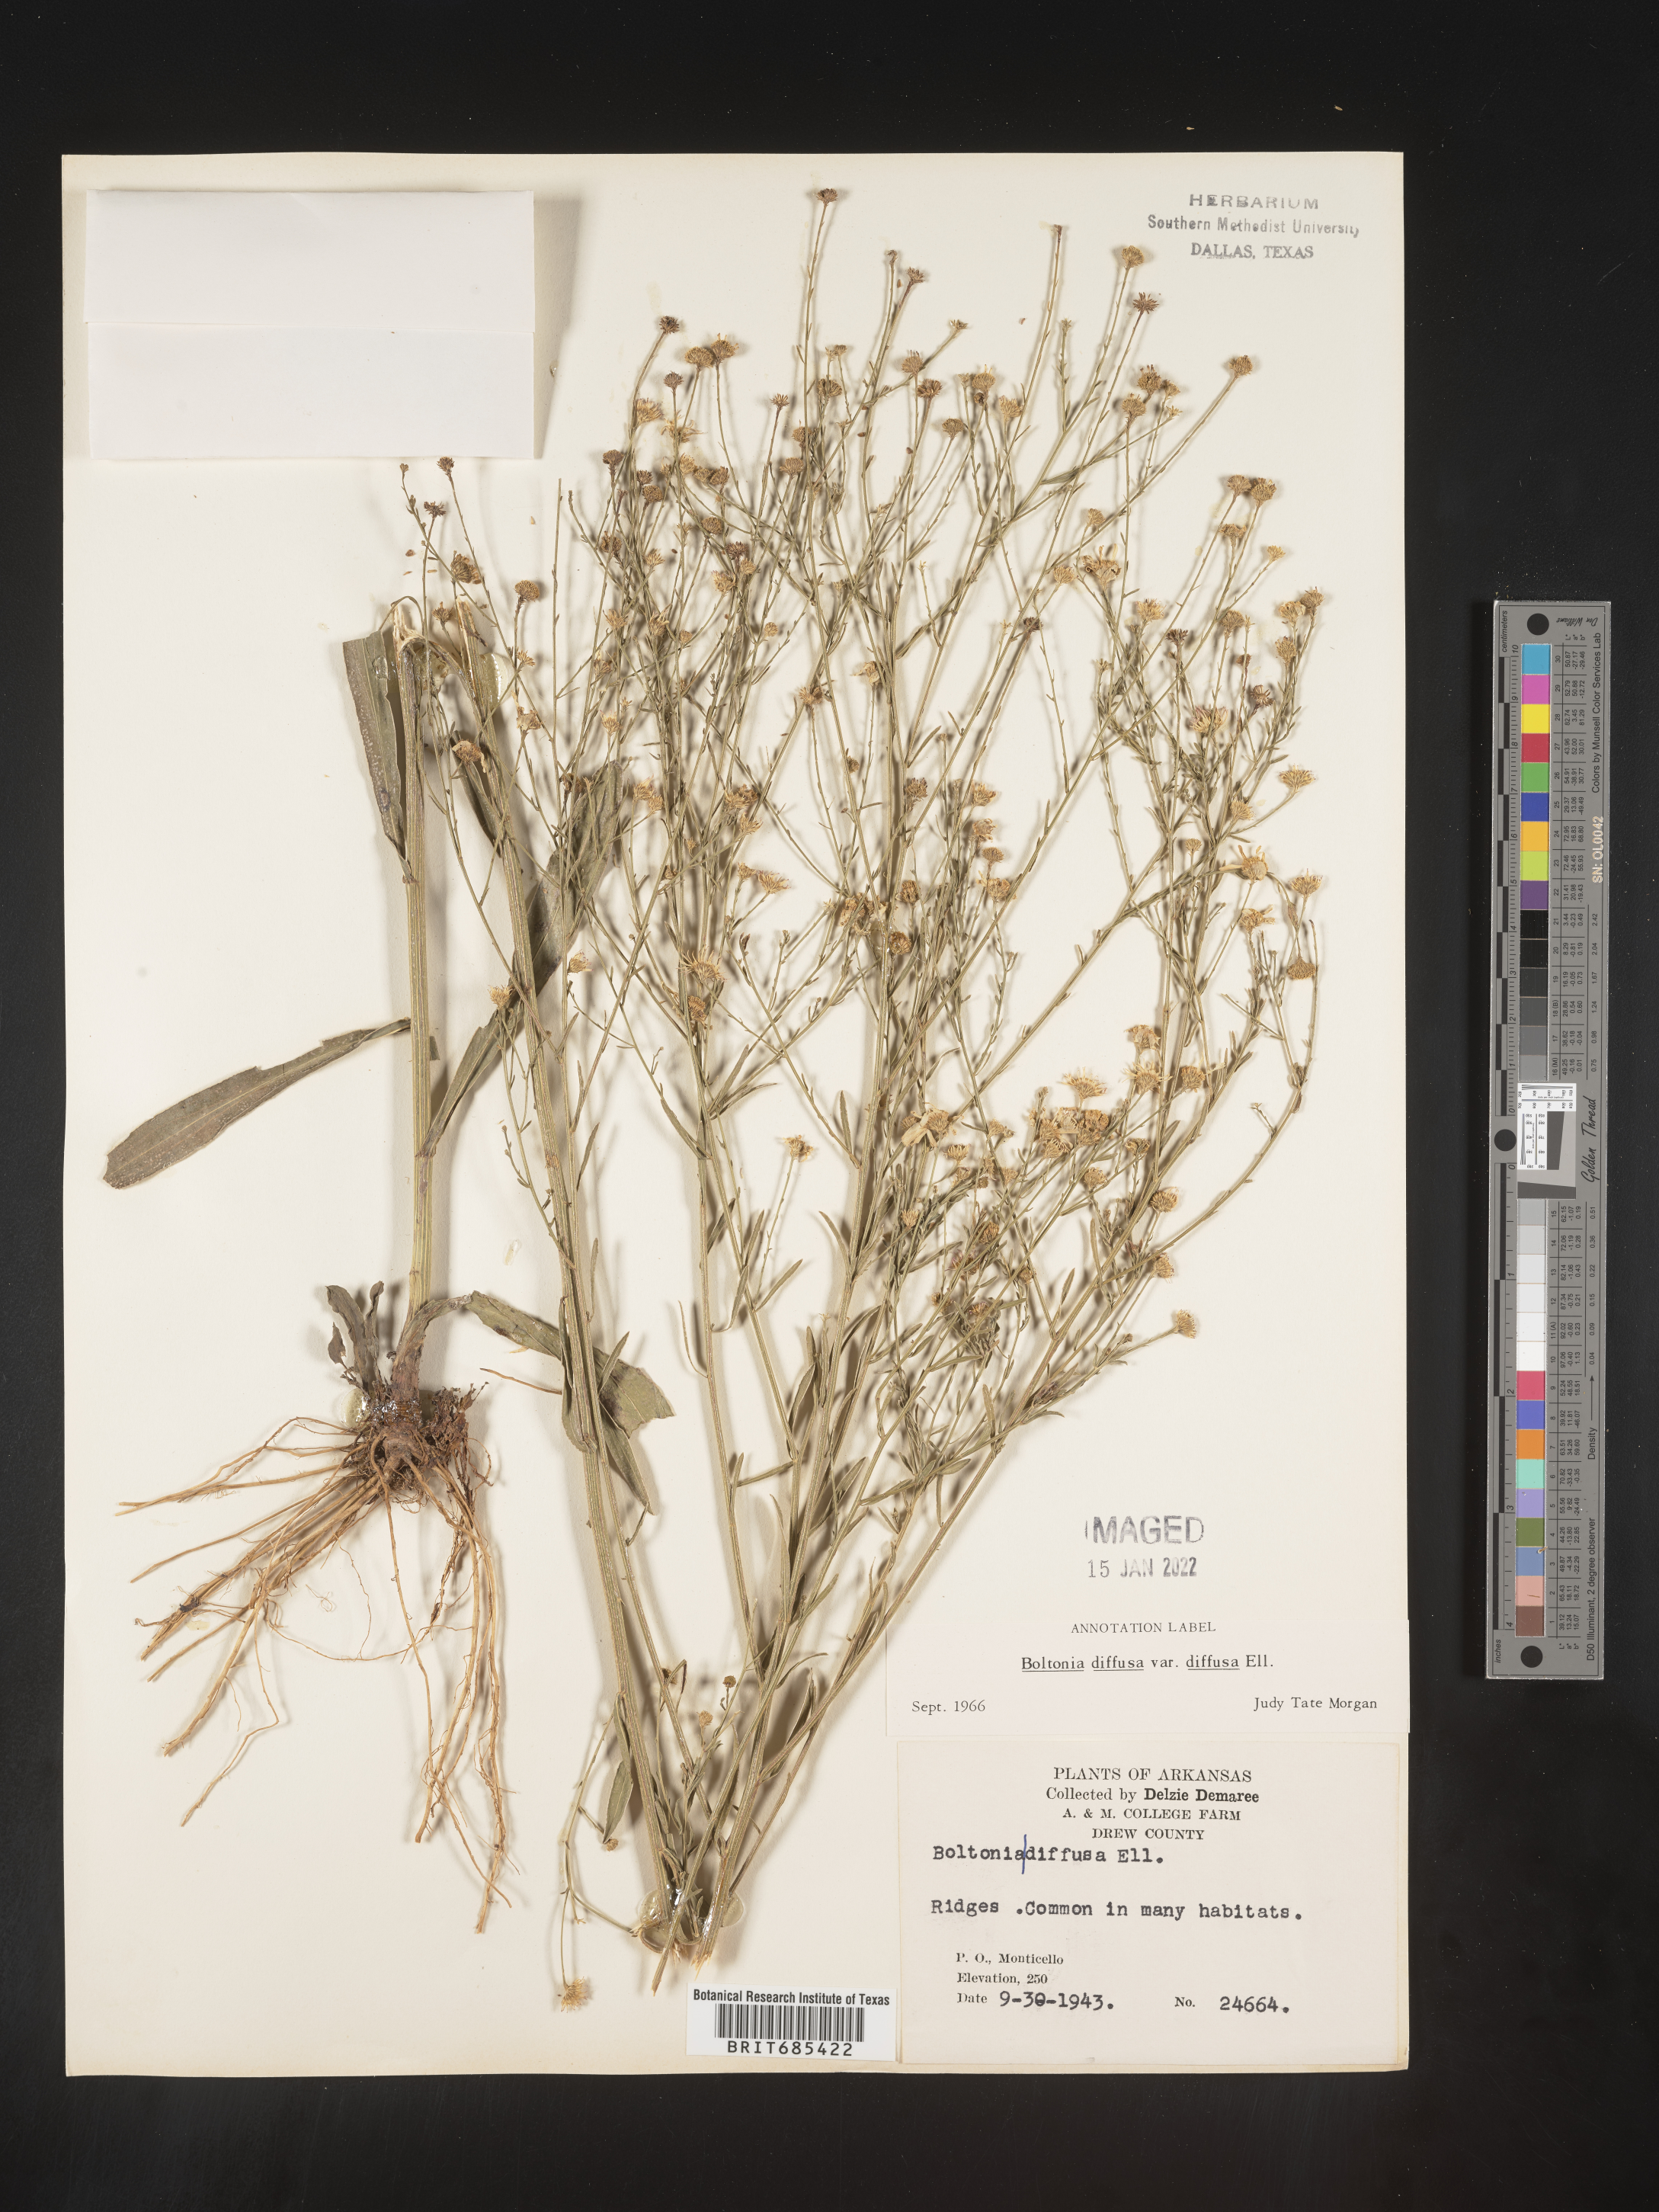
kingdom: Plantae
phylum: Tracheophyta
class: Magnoliopsida
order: Asterales
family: Asteraceae
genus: Boltonia
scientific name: Boltonia diffusa
